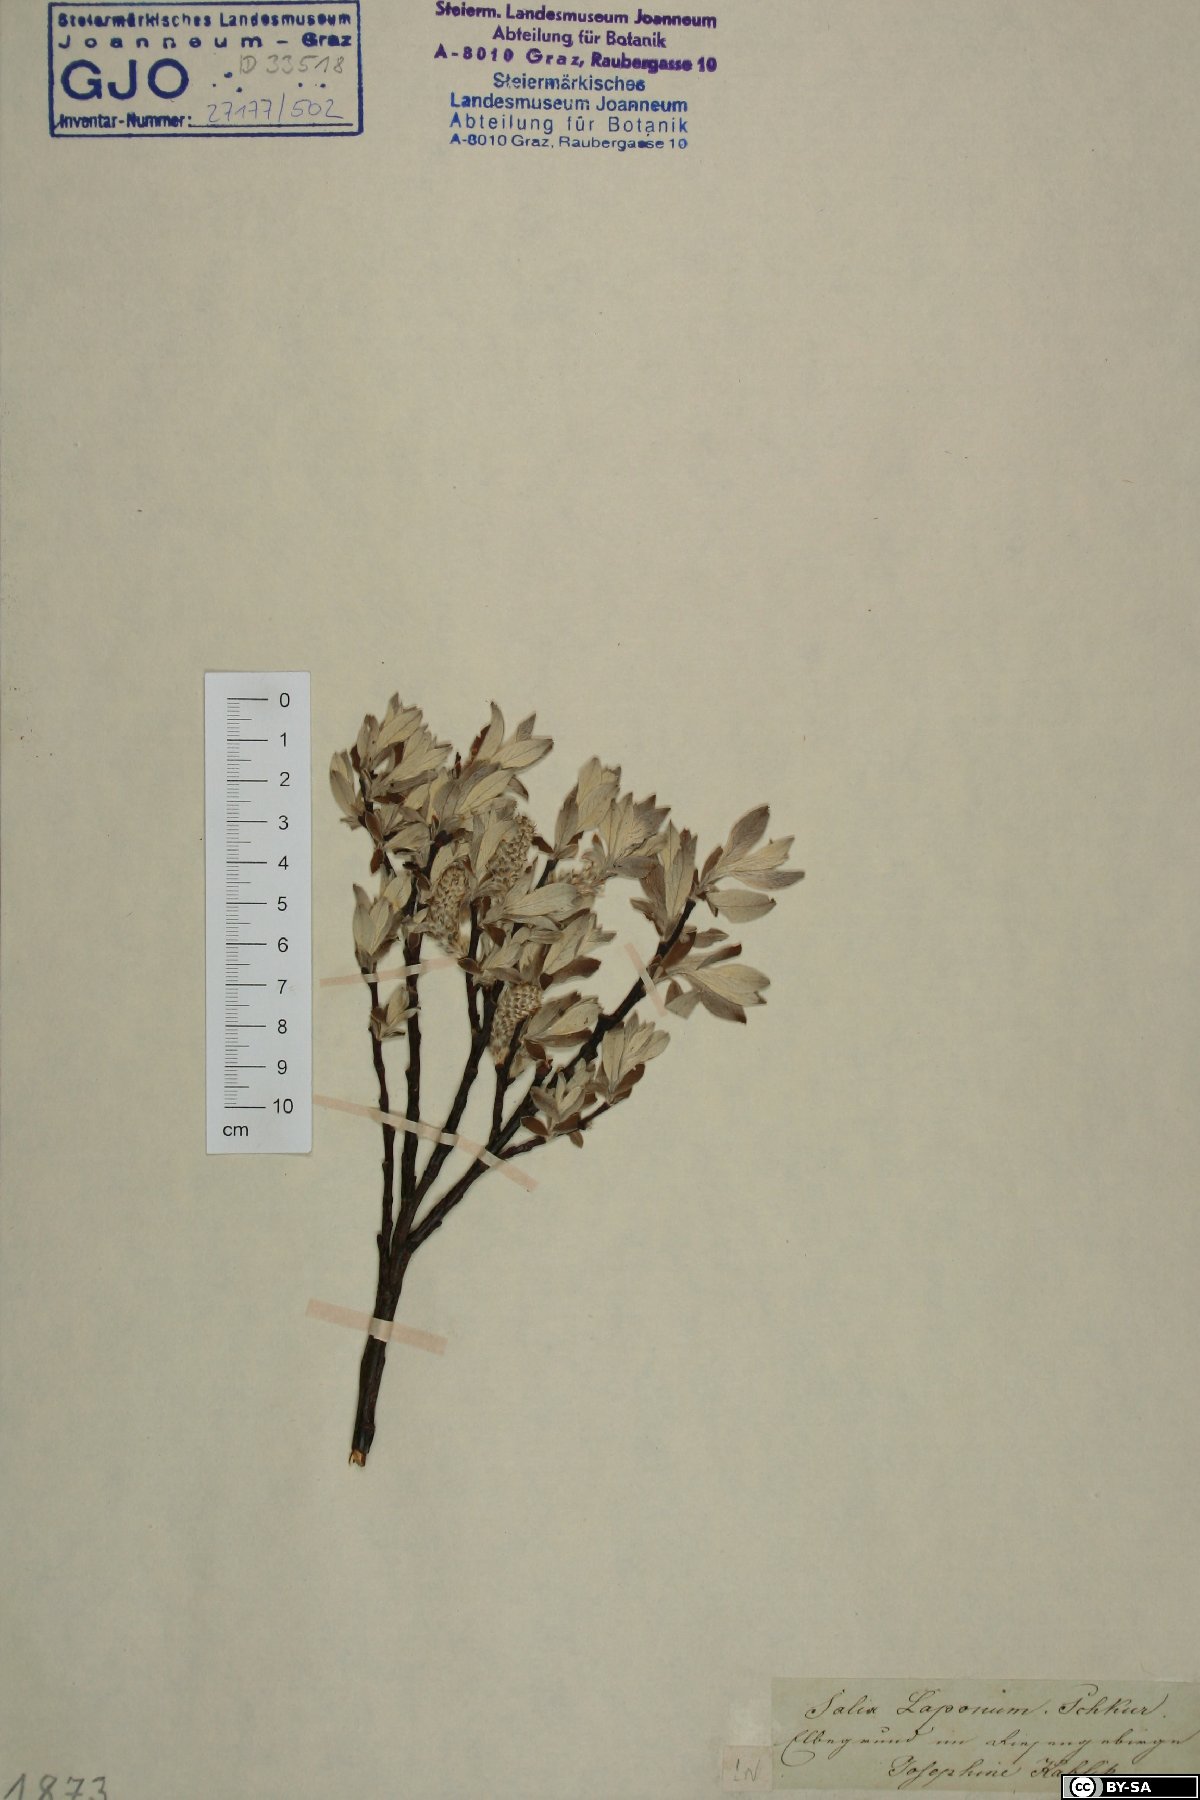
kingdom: Plantae
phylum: Tracheophyta
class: Magnoliopsida
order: Malpighiales
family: Salicaceae
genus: Salix
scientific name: Salix lapponum
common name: Downy willow
